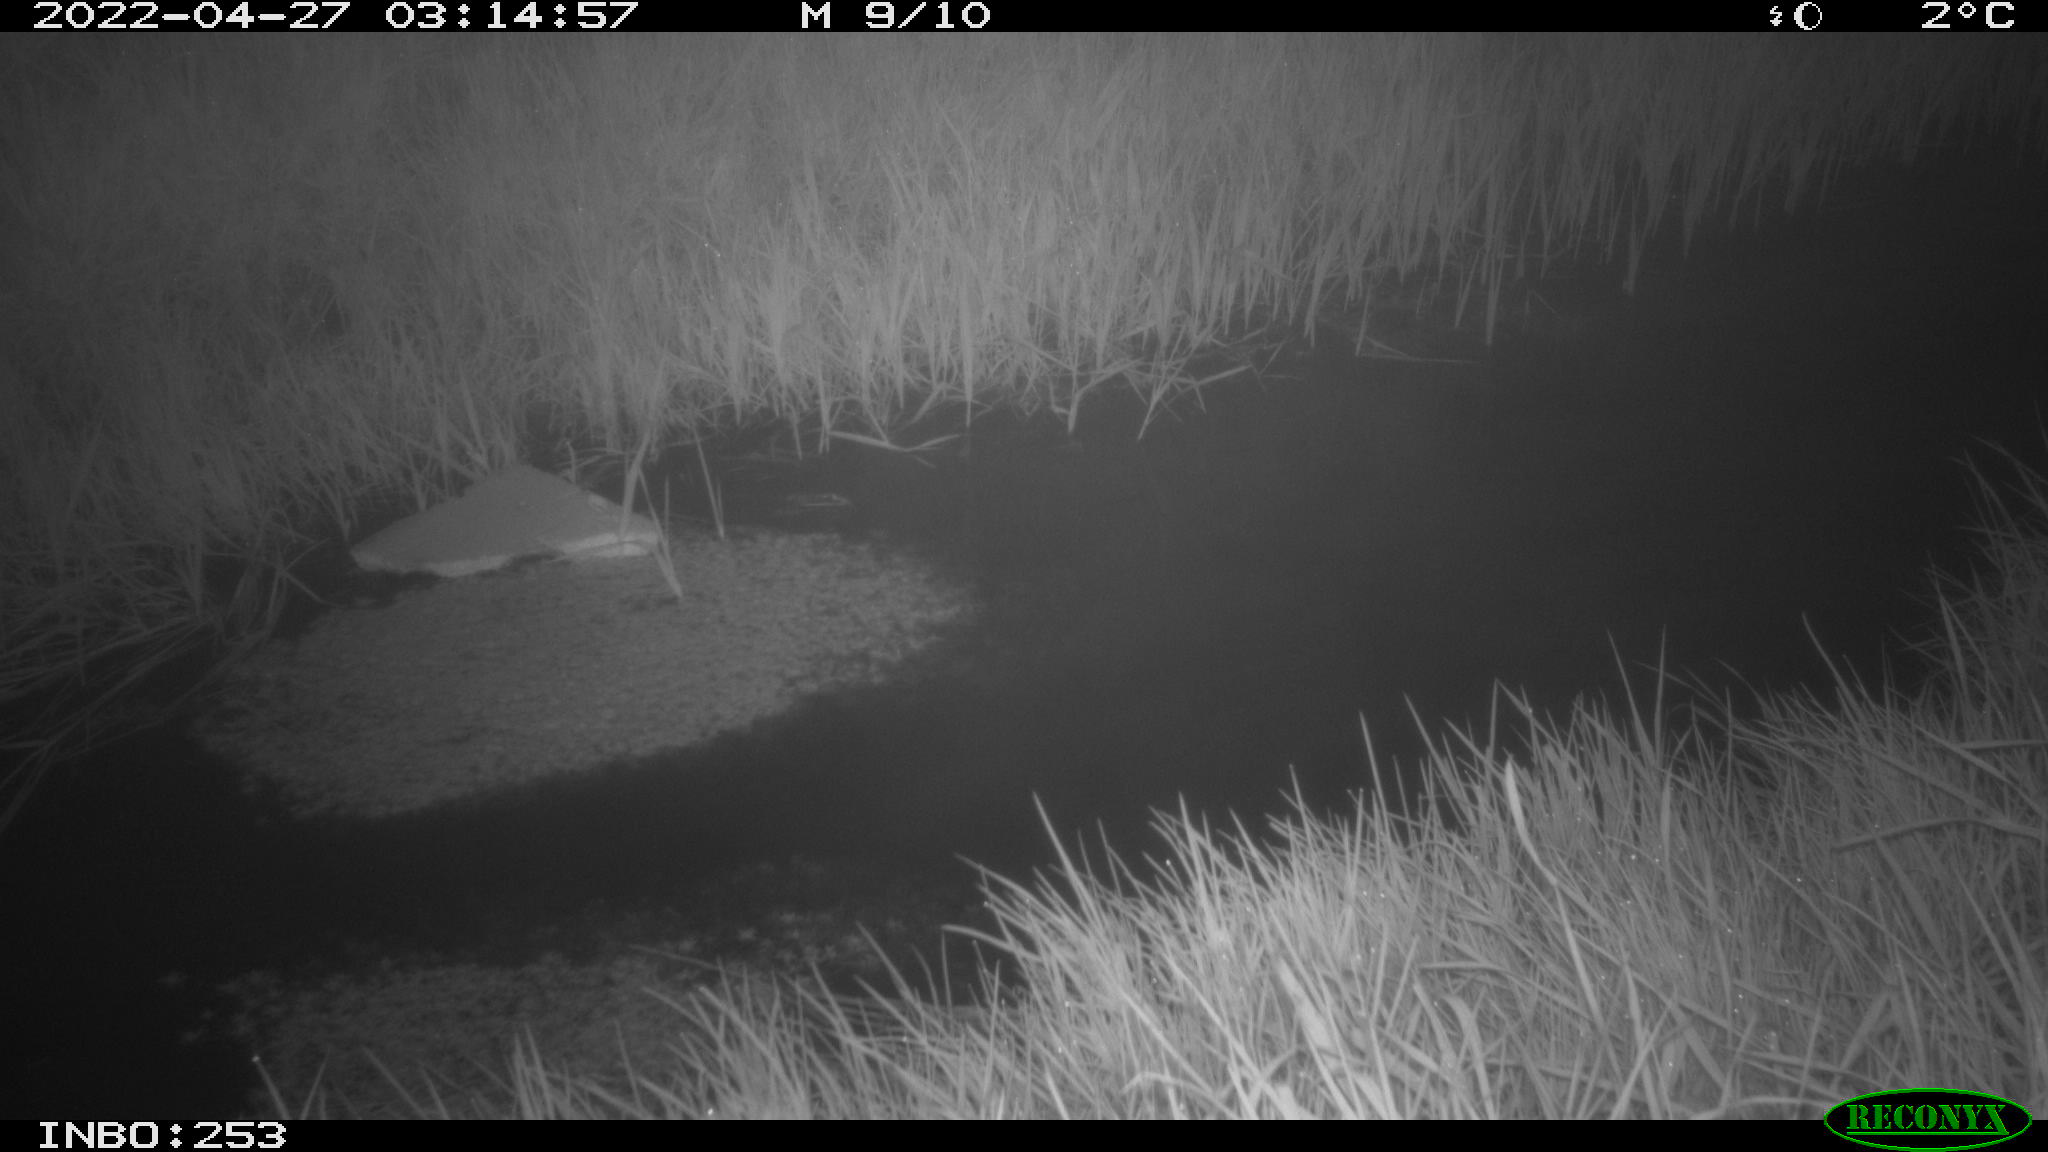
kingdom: Animalia
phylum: Chordata
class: Aves
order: Anseriformes
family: Anatidae
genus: Anas
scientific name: Anas platyrhynchos
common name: Mallard
